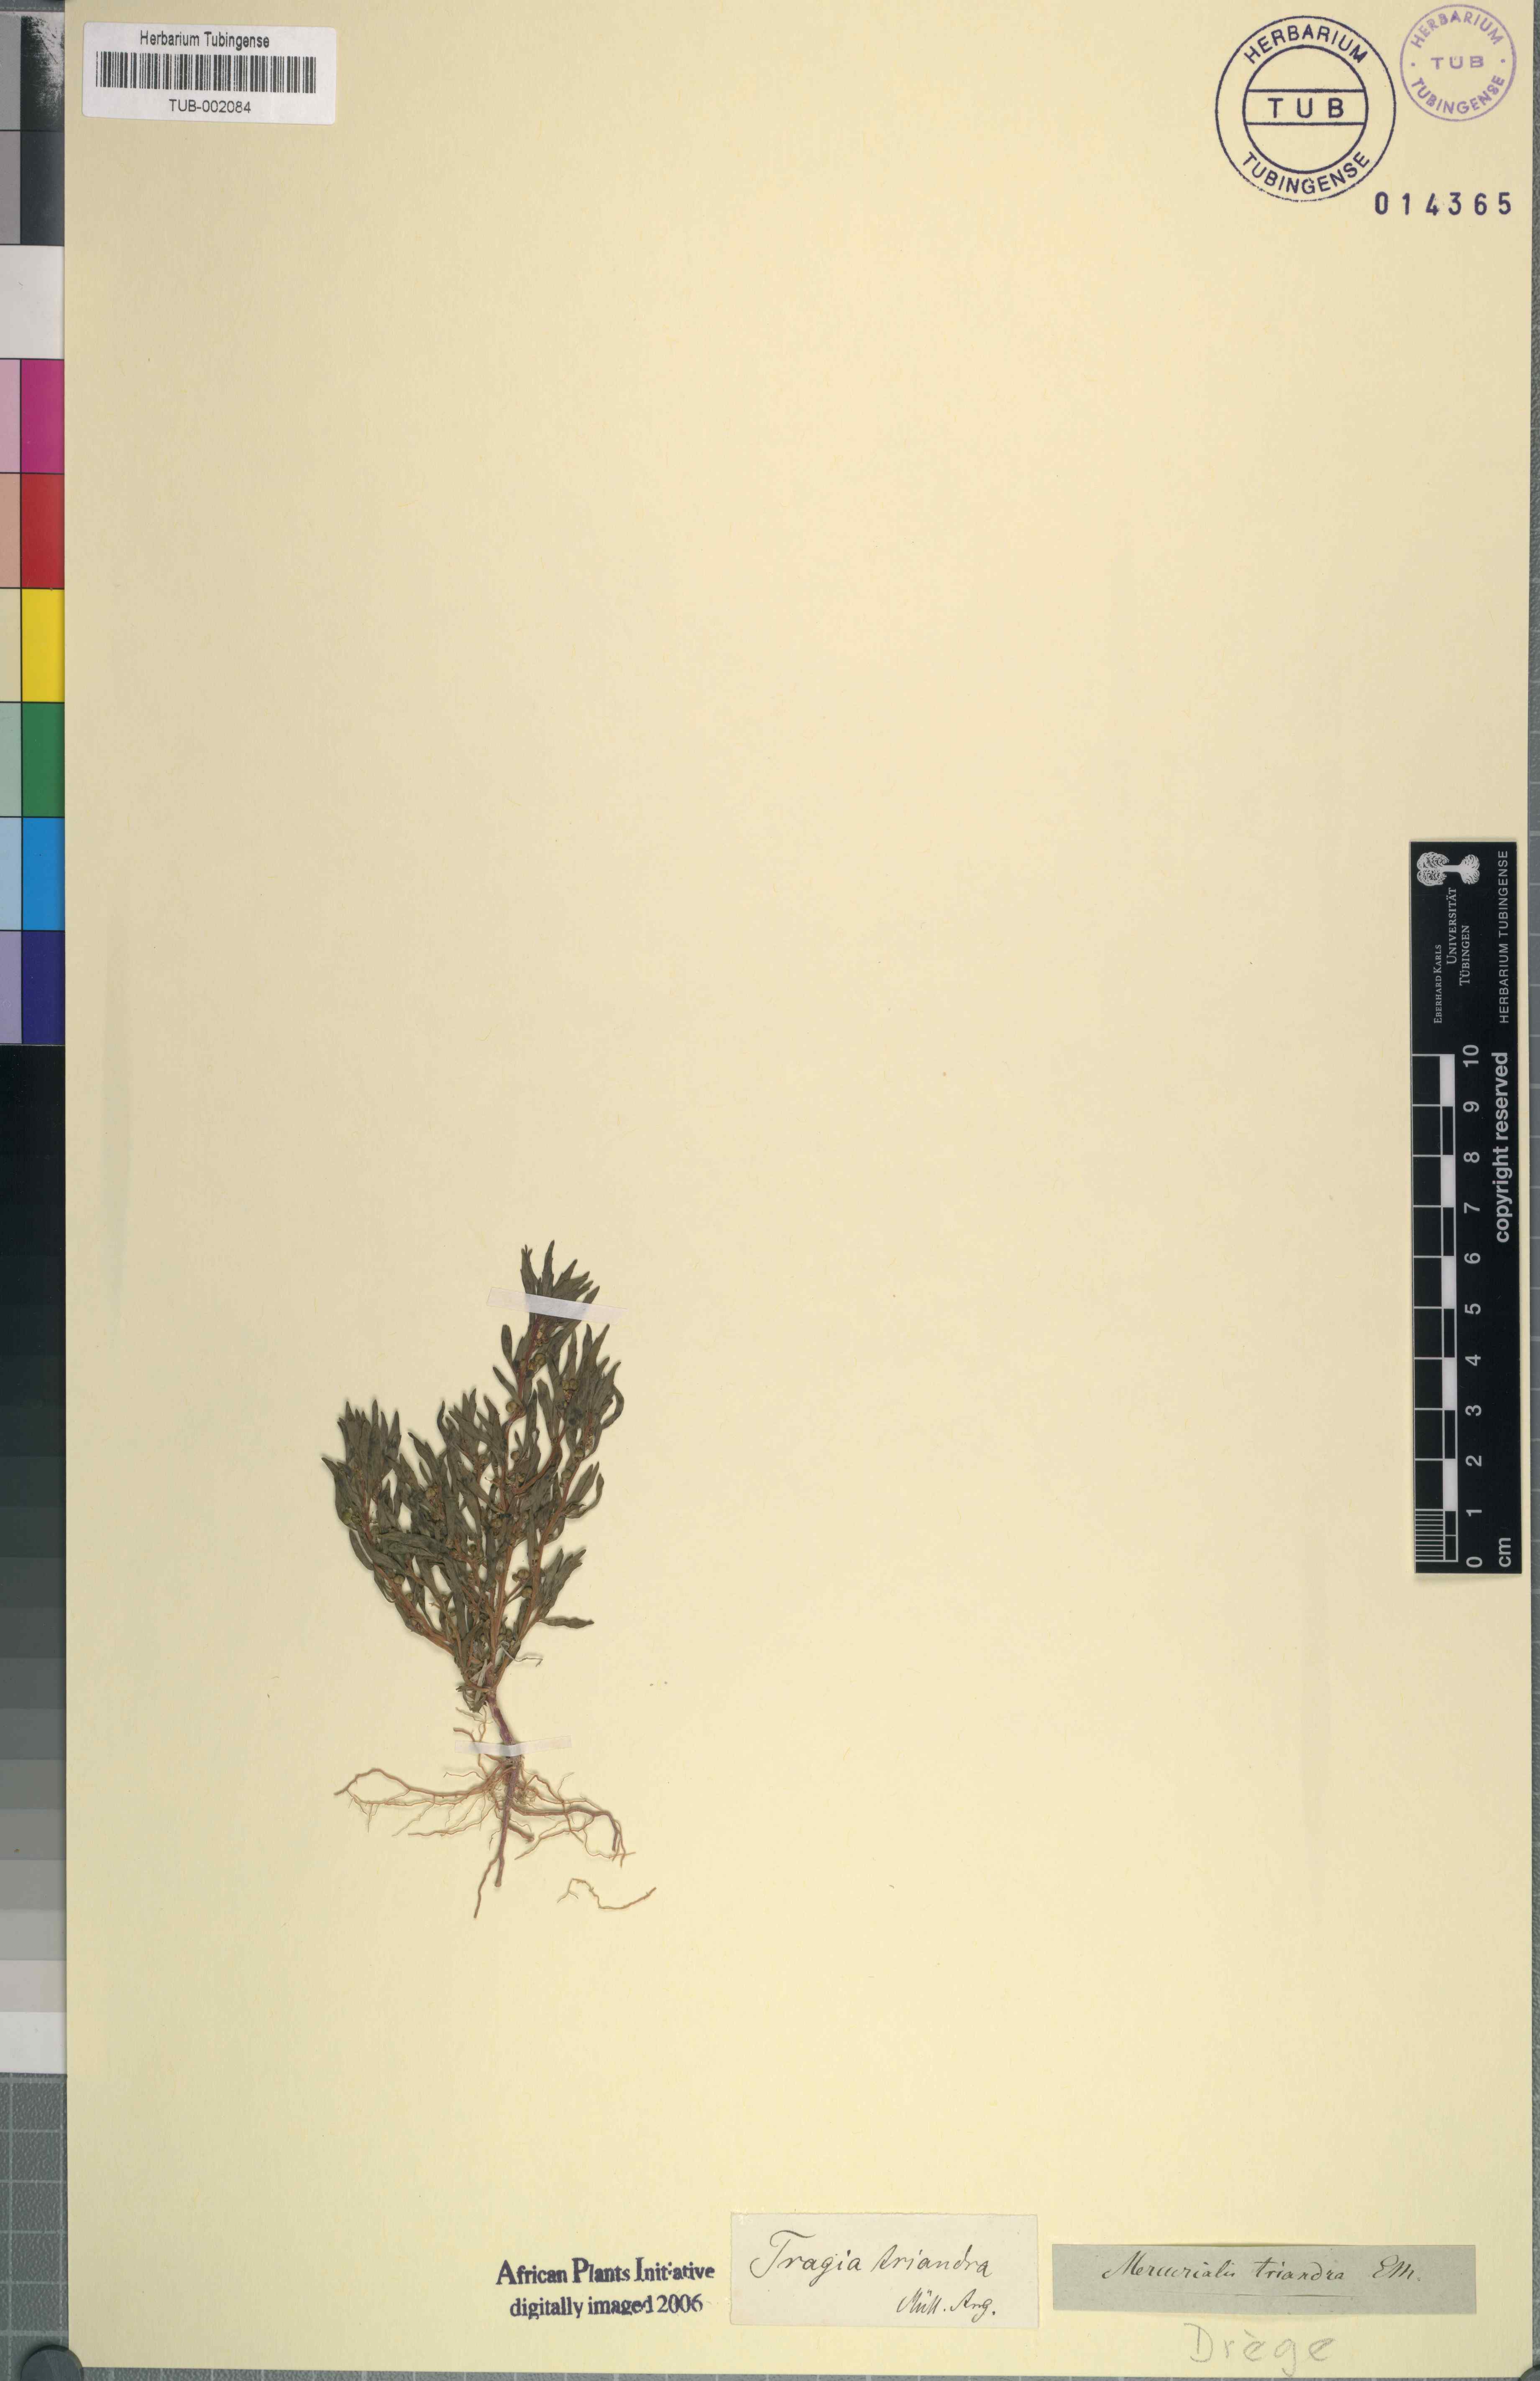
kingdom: Plantae
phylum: Tracheophyta
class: Magnoliopsida
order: Malpighiales
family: Euphorbiaceae
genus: Seidelia
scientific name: Seidelia triandra
